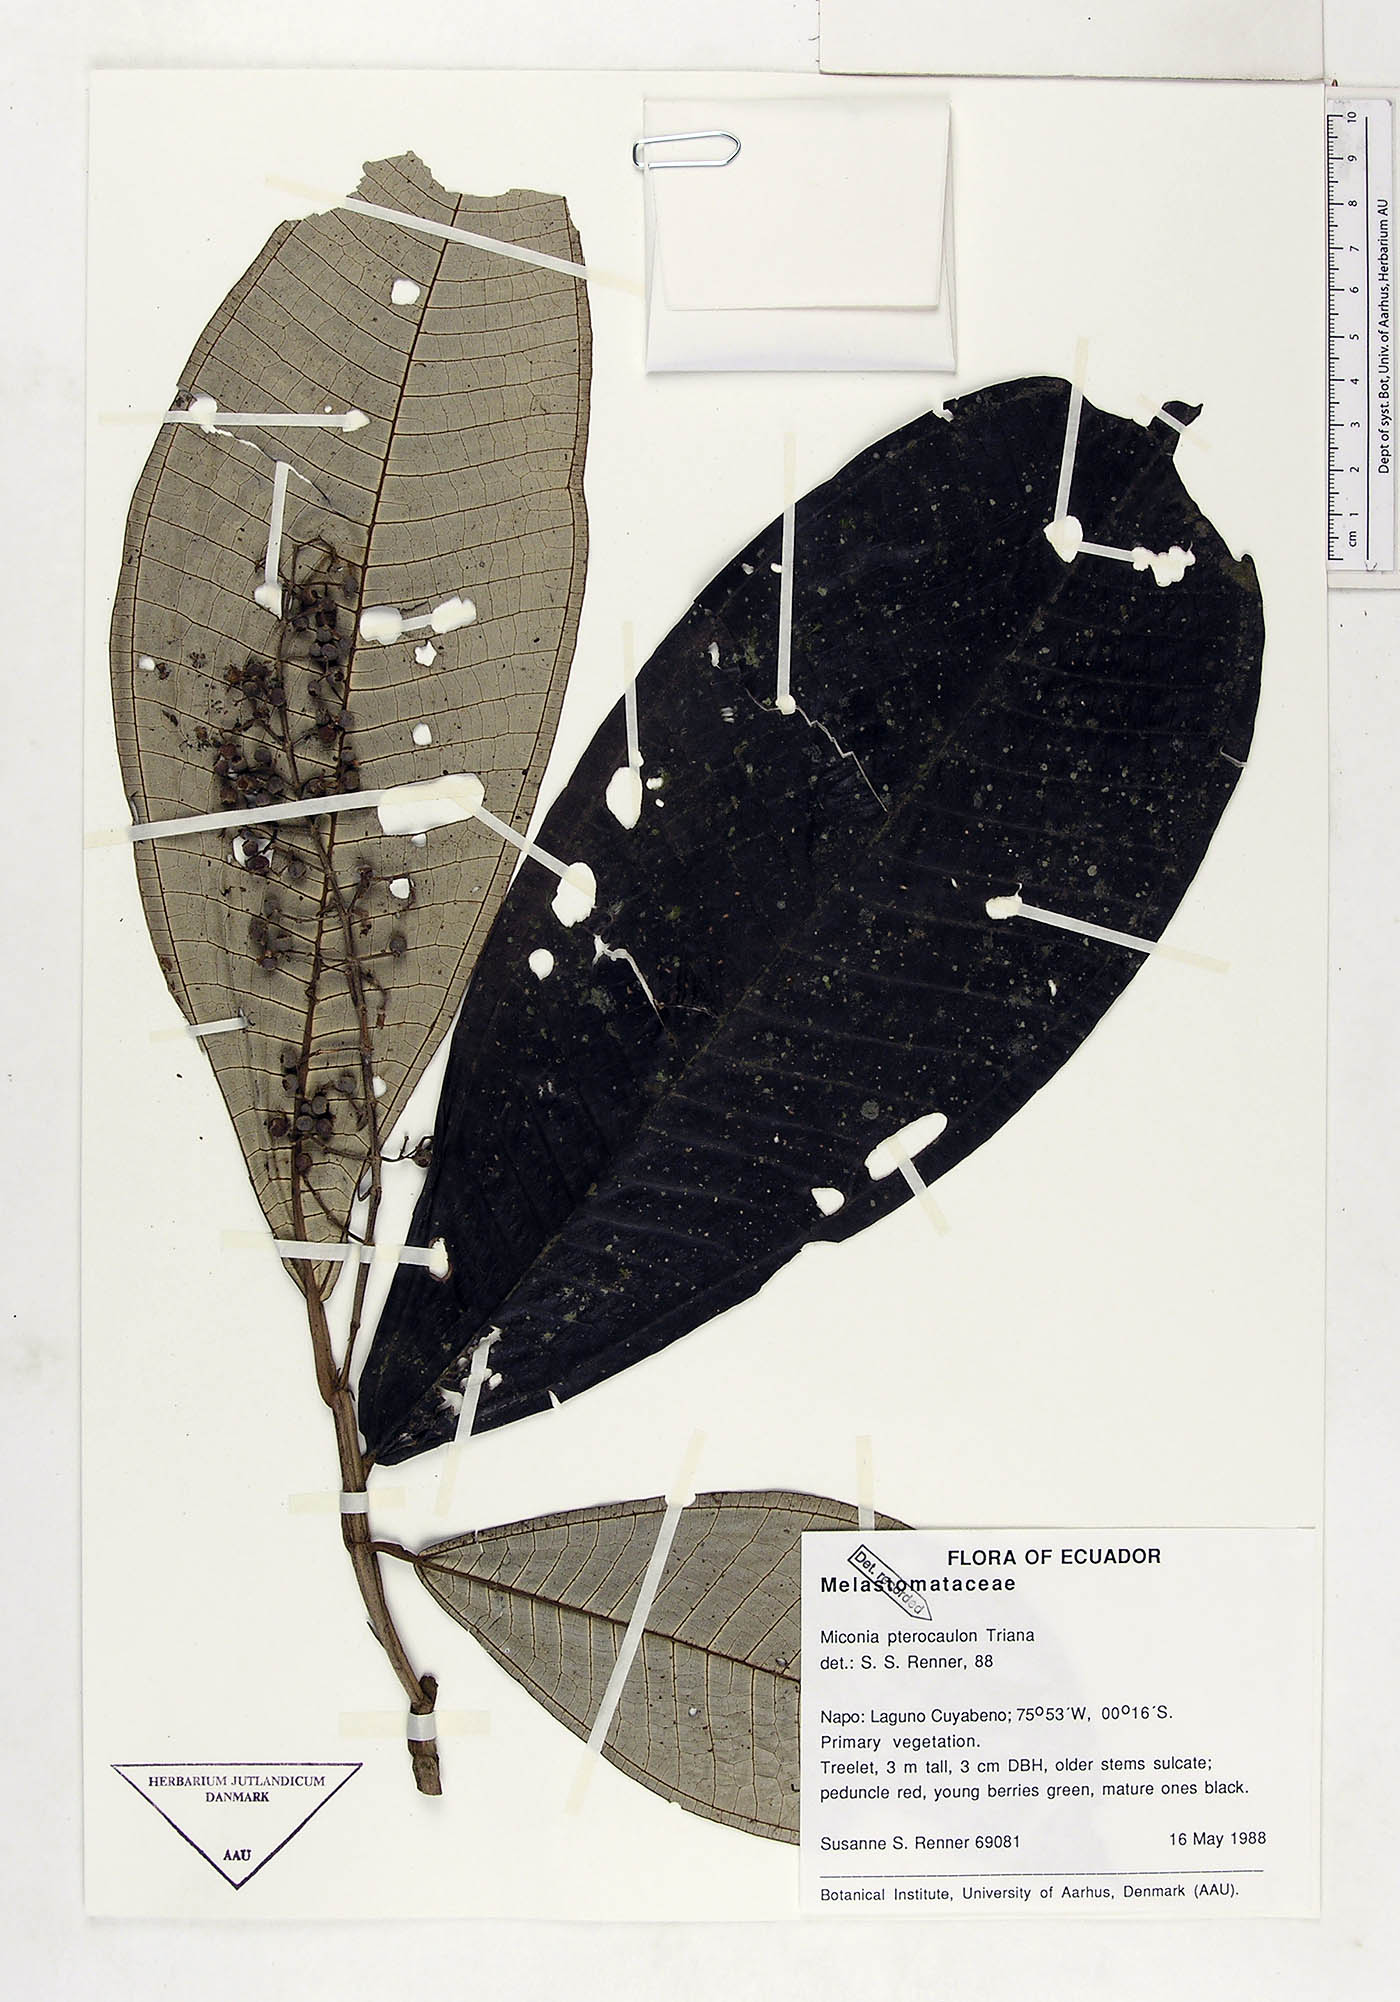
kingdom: Plantae
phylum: Tracheophyta
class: Magnoliopsida
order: Myrtales
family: Melastomataceae
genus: Miconia
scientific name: Miconia pterocaulon
